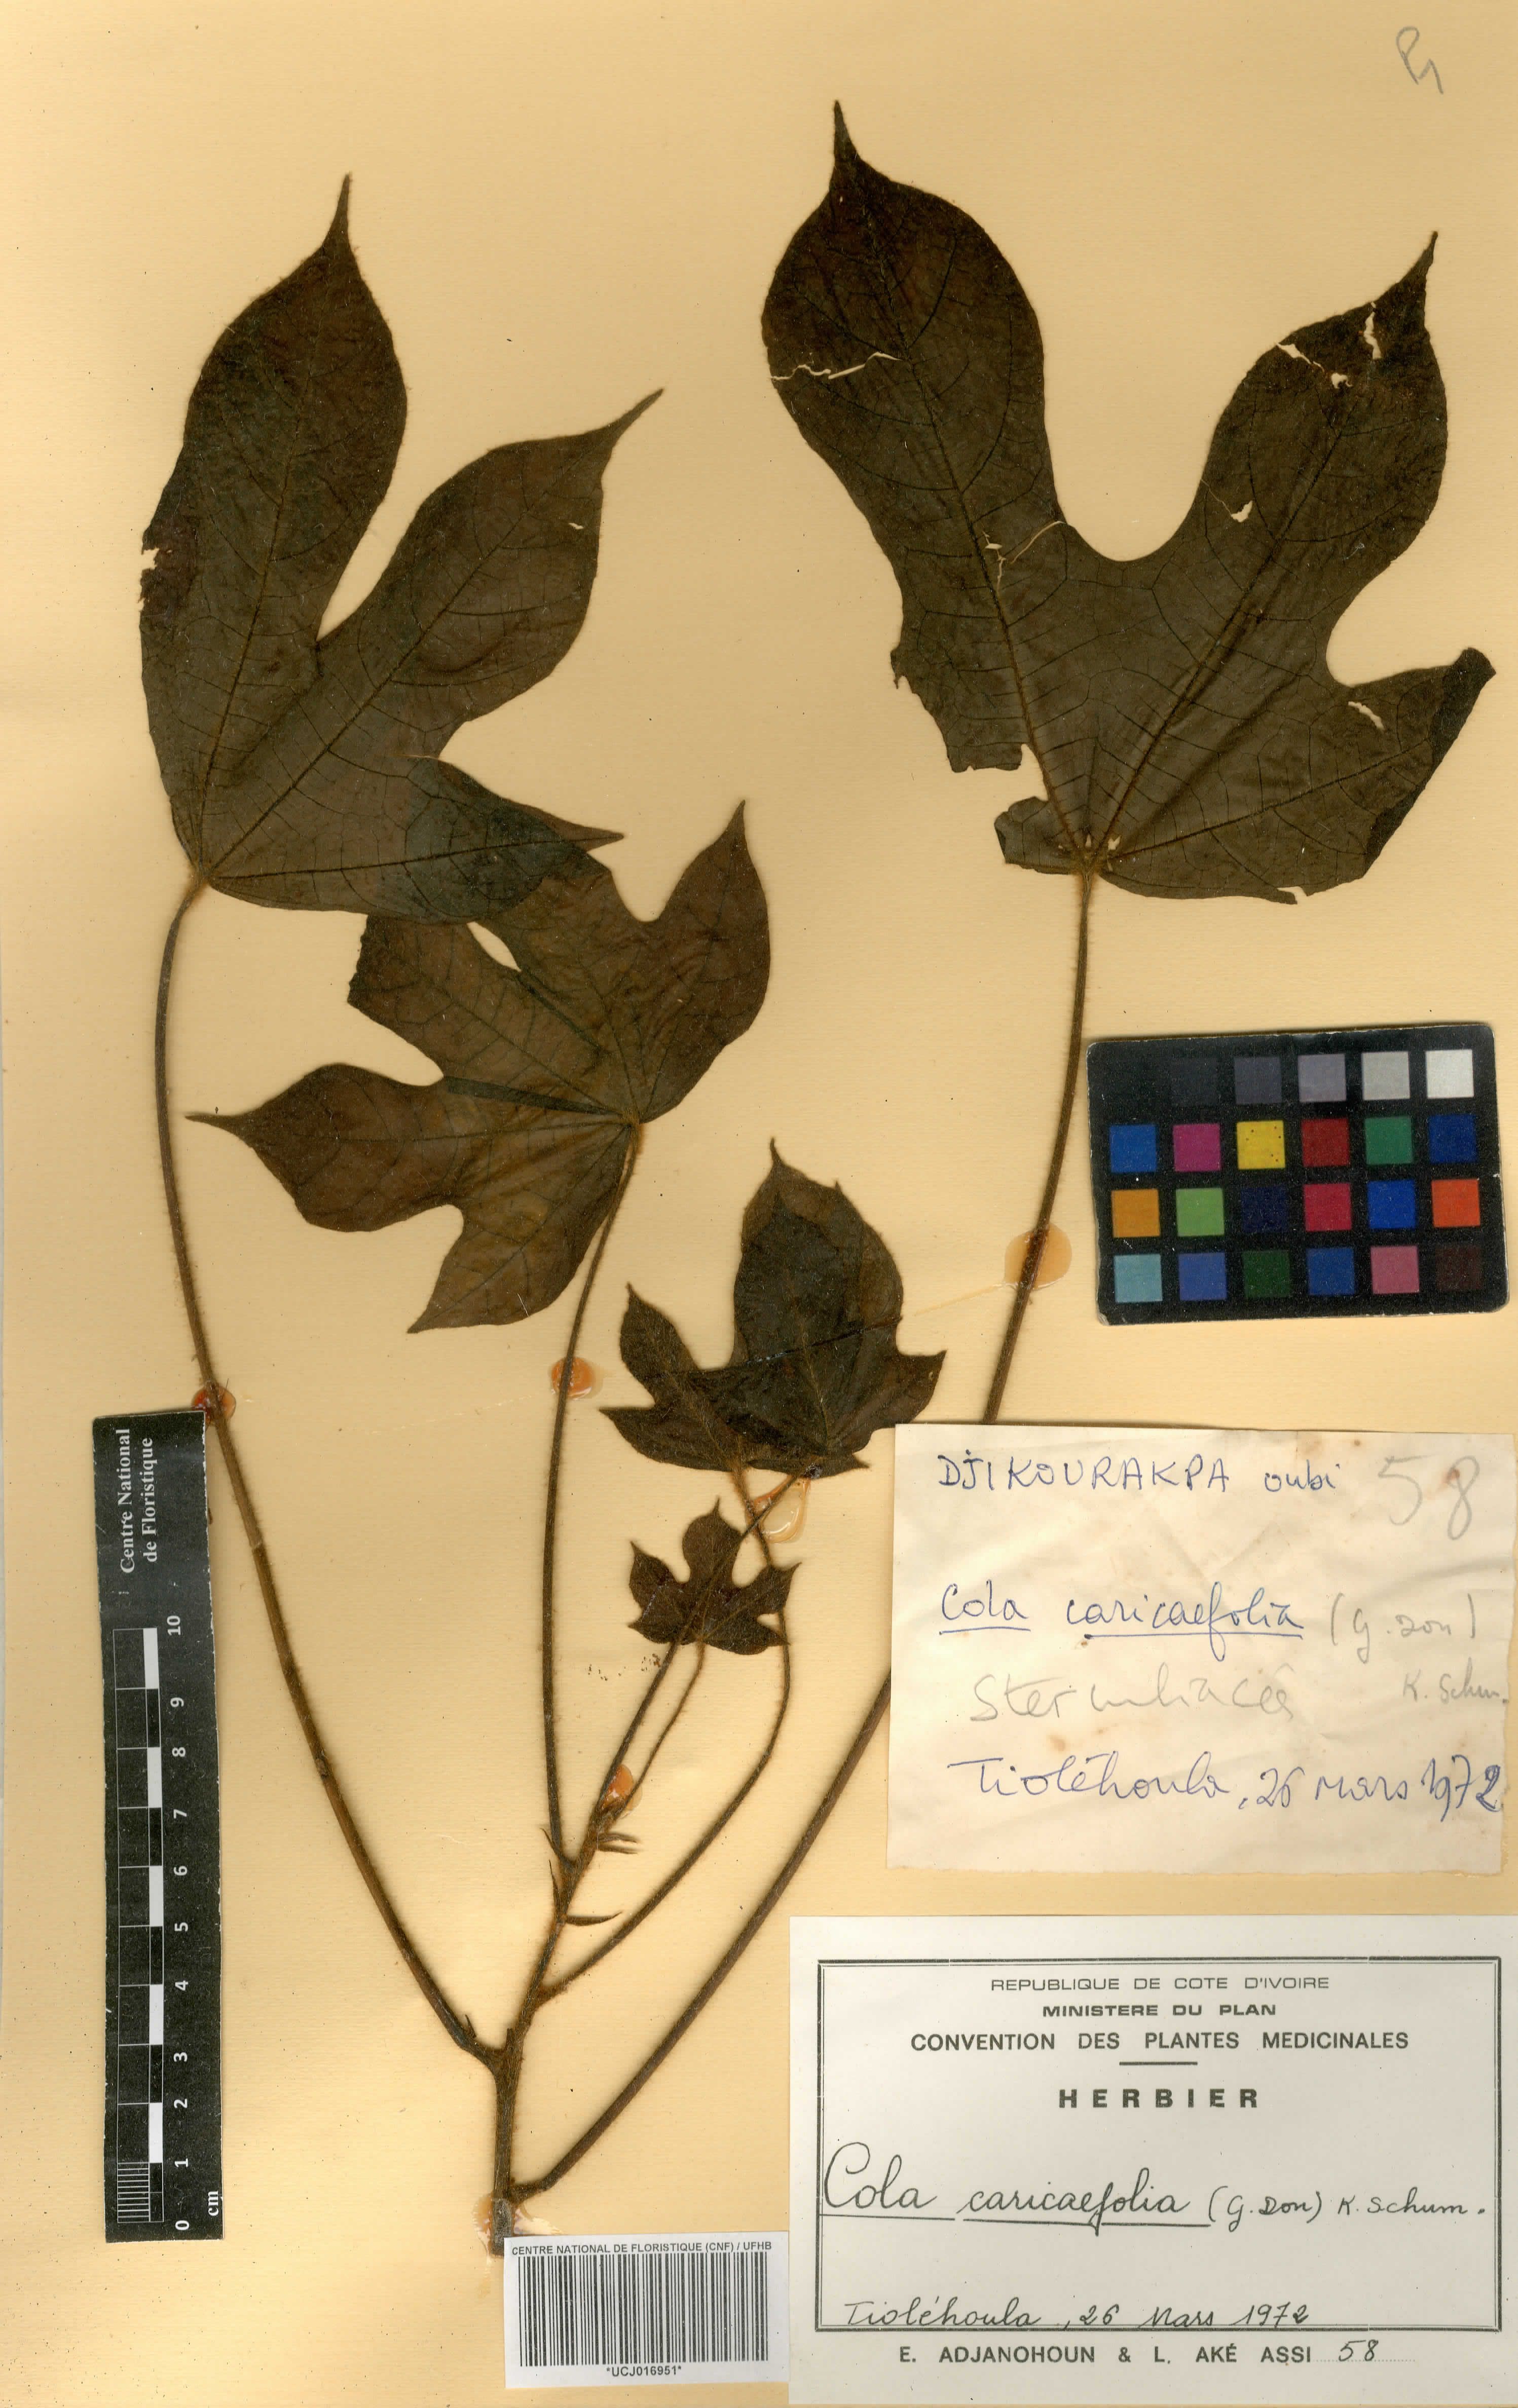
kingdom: Plantae
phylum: Tracheophyta
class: Magnoliopsida
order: Malvales
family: Malvaceae
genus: Cola
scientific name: Cola caricifolia
